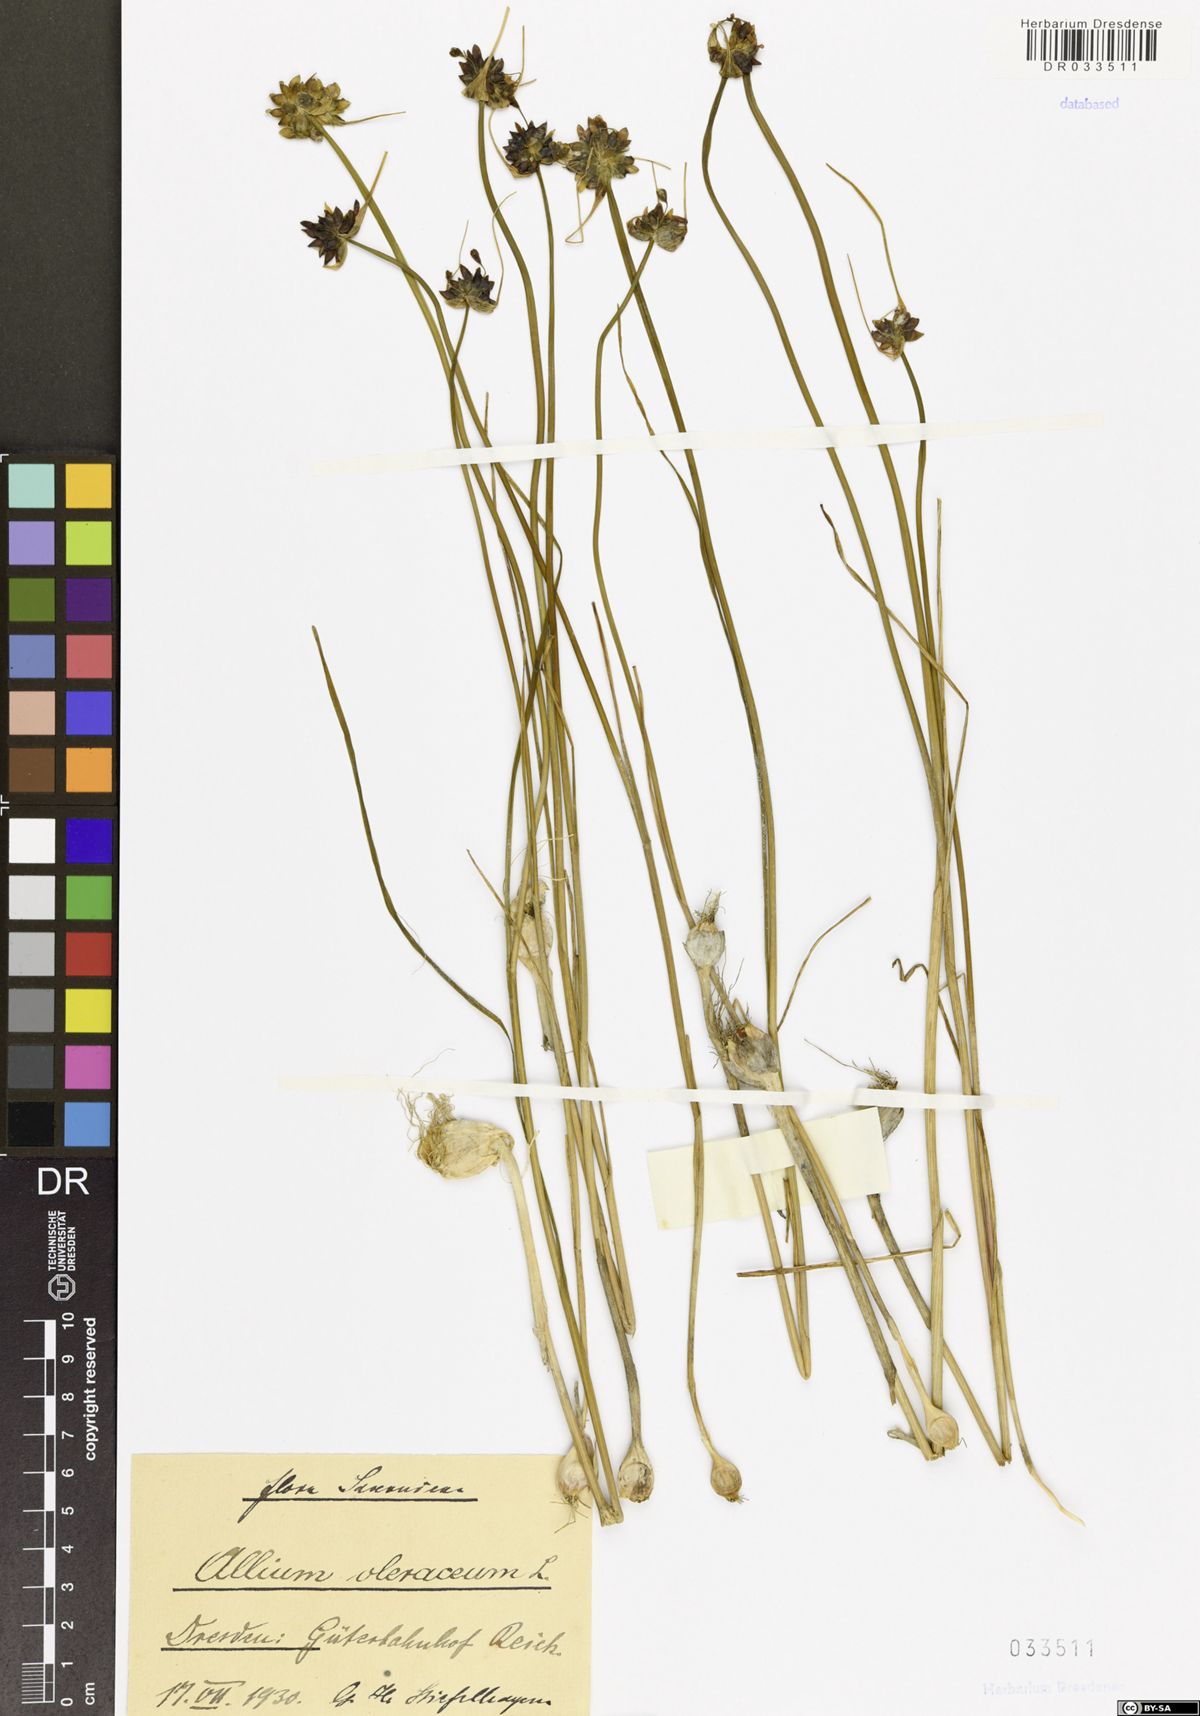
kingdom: Plantae
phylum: Tracheophyta
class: Liliopsida
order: Asparagales
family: Amaryllidaceae
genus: Allium
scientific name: Allium oleraceum
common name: Field garlic
